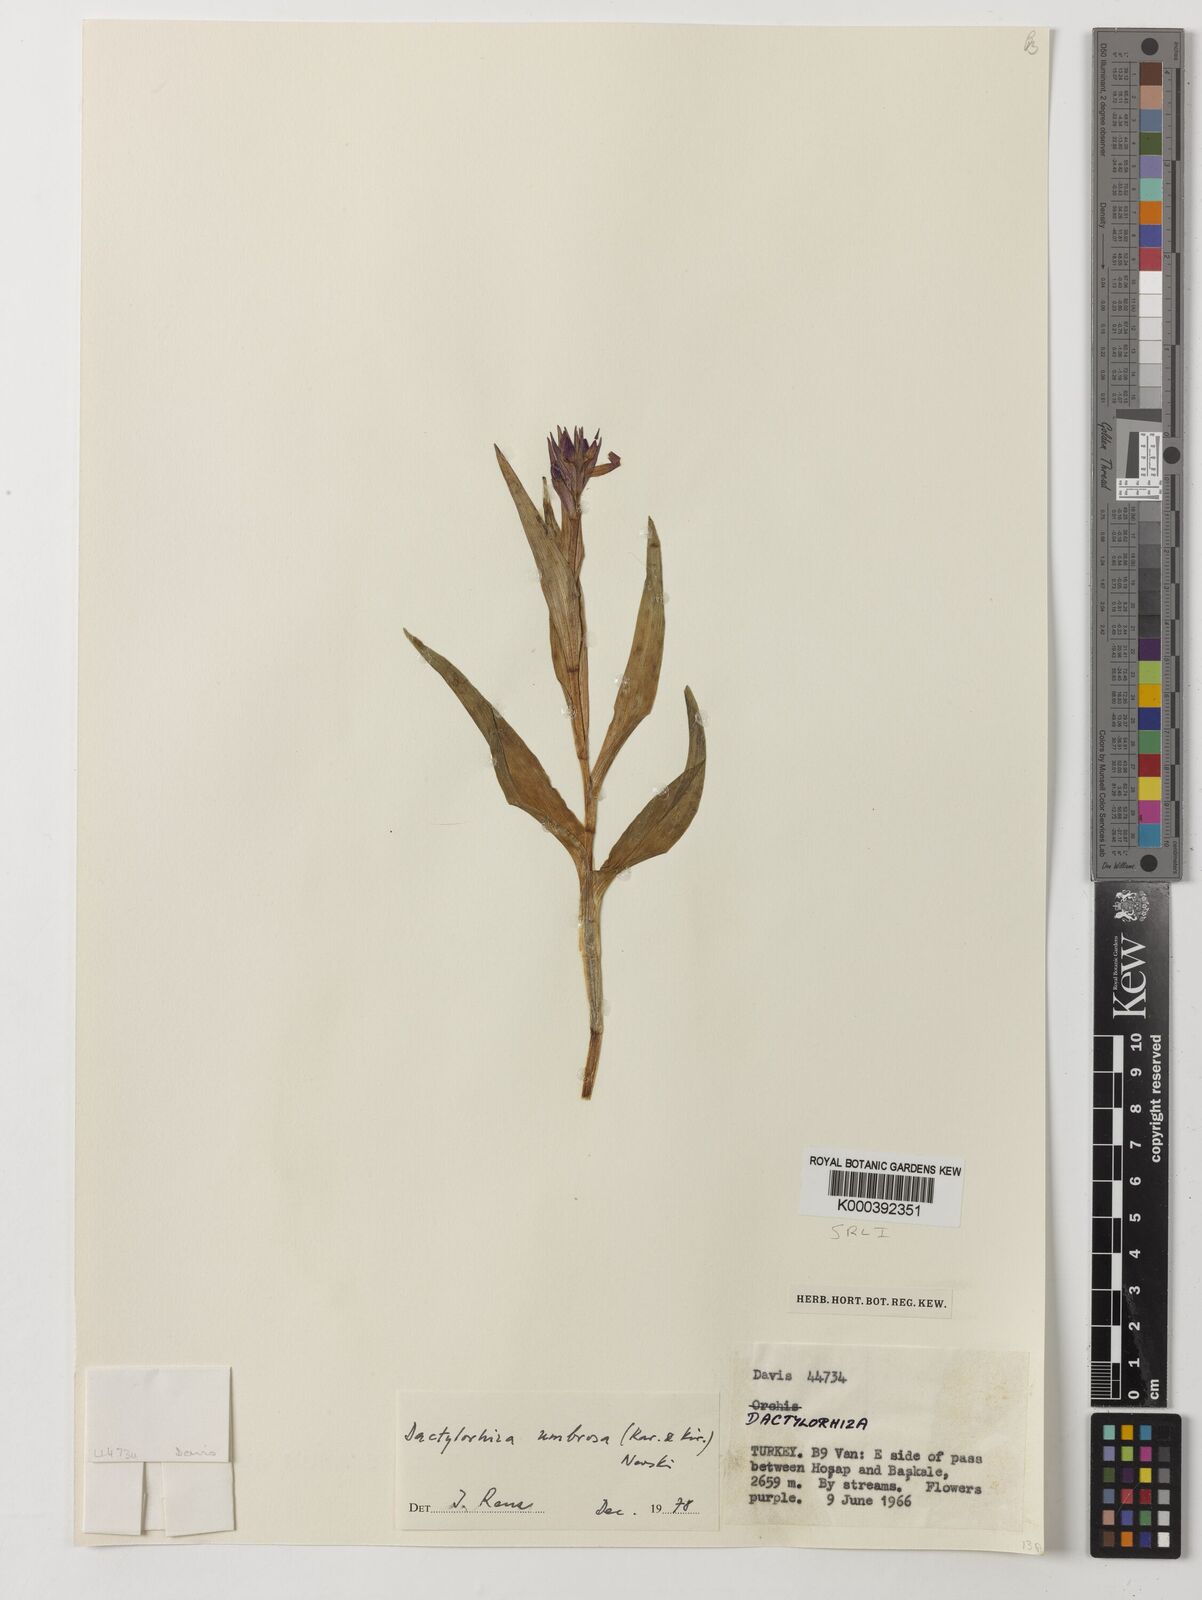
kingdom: Plantae
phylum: Tracheophyta
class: Liliopsida
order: Asparagales
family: Orchidaceae
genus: Dactylorhiza
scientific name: Dactylorhiza
